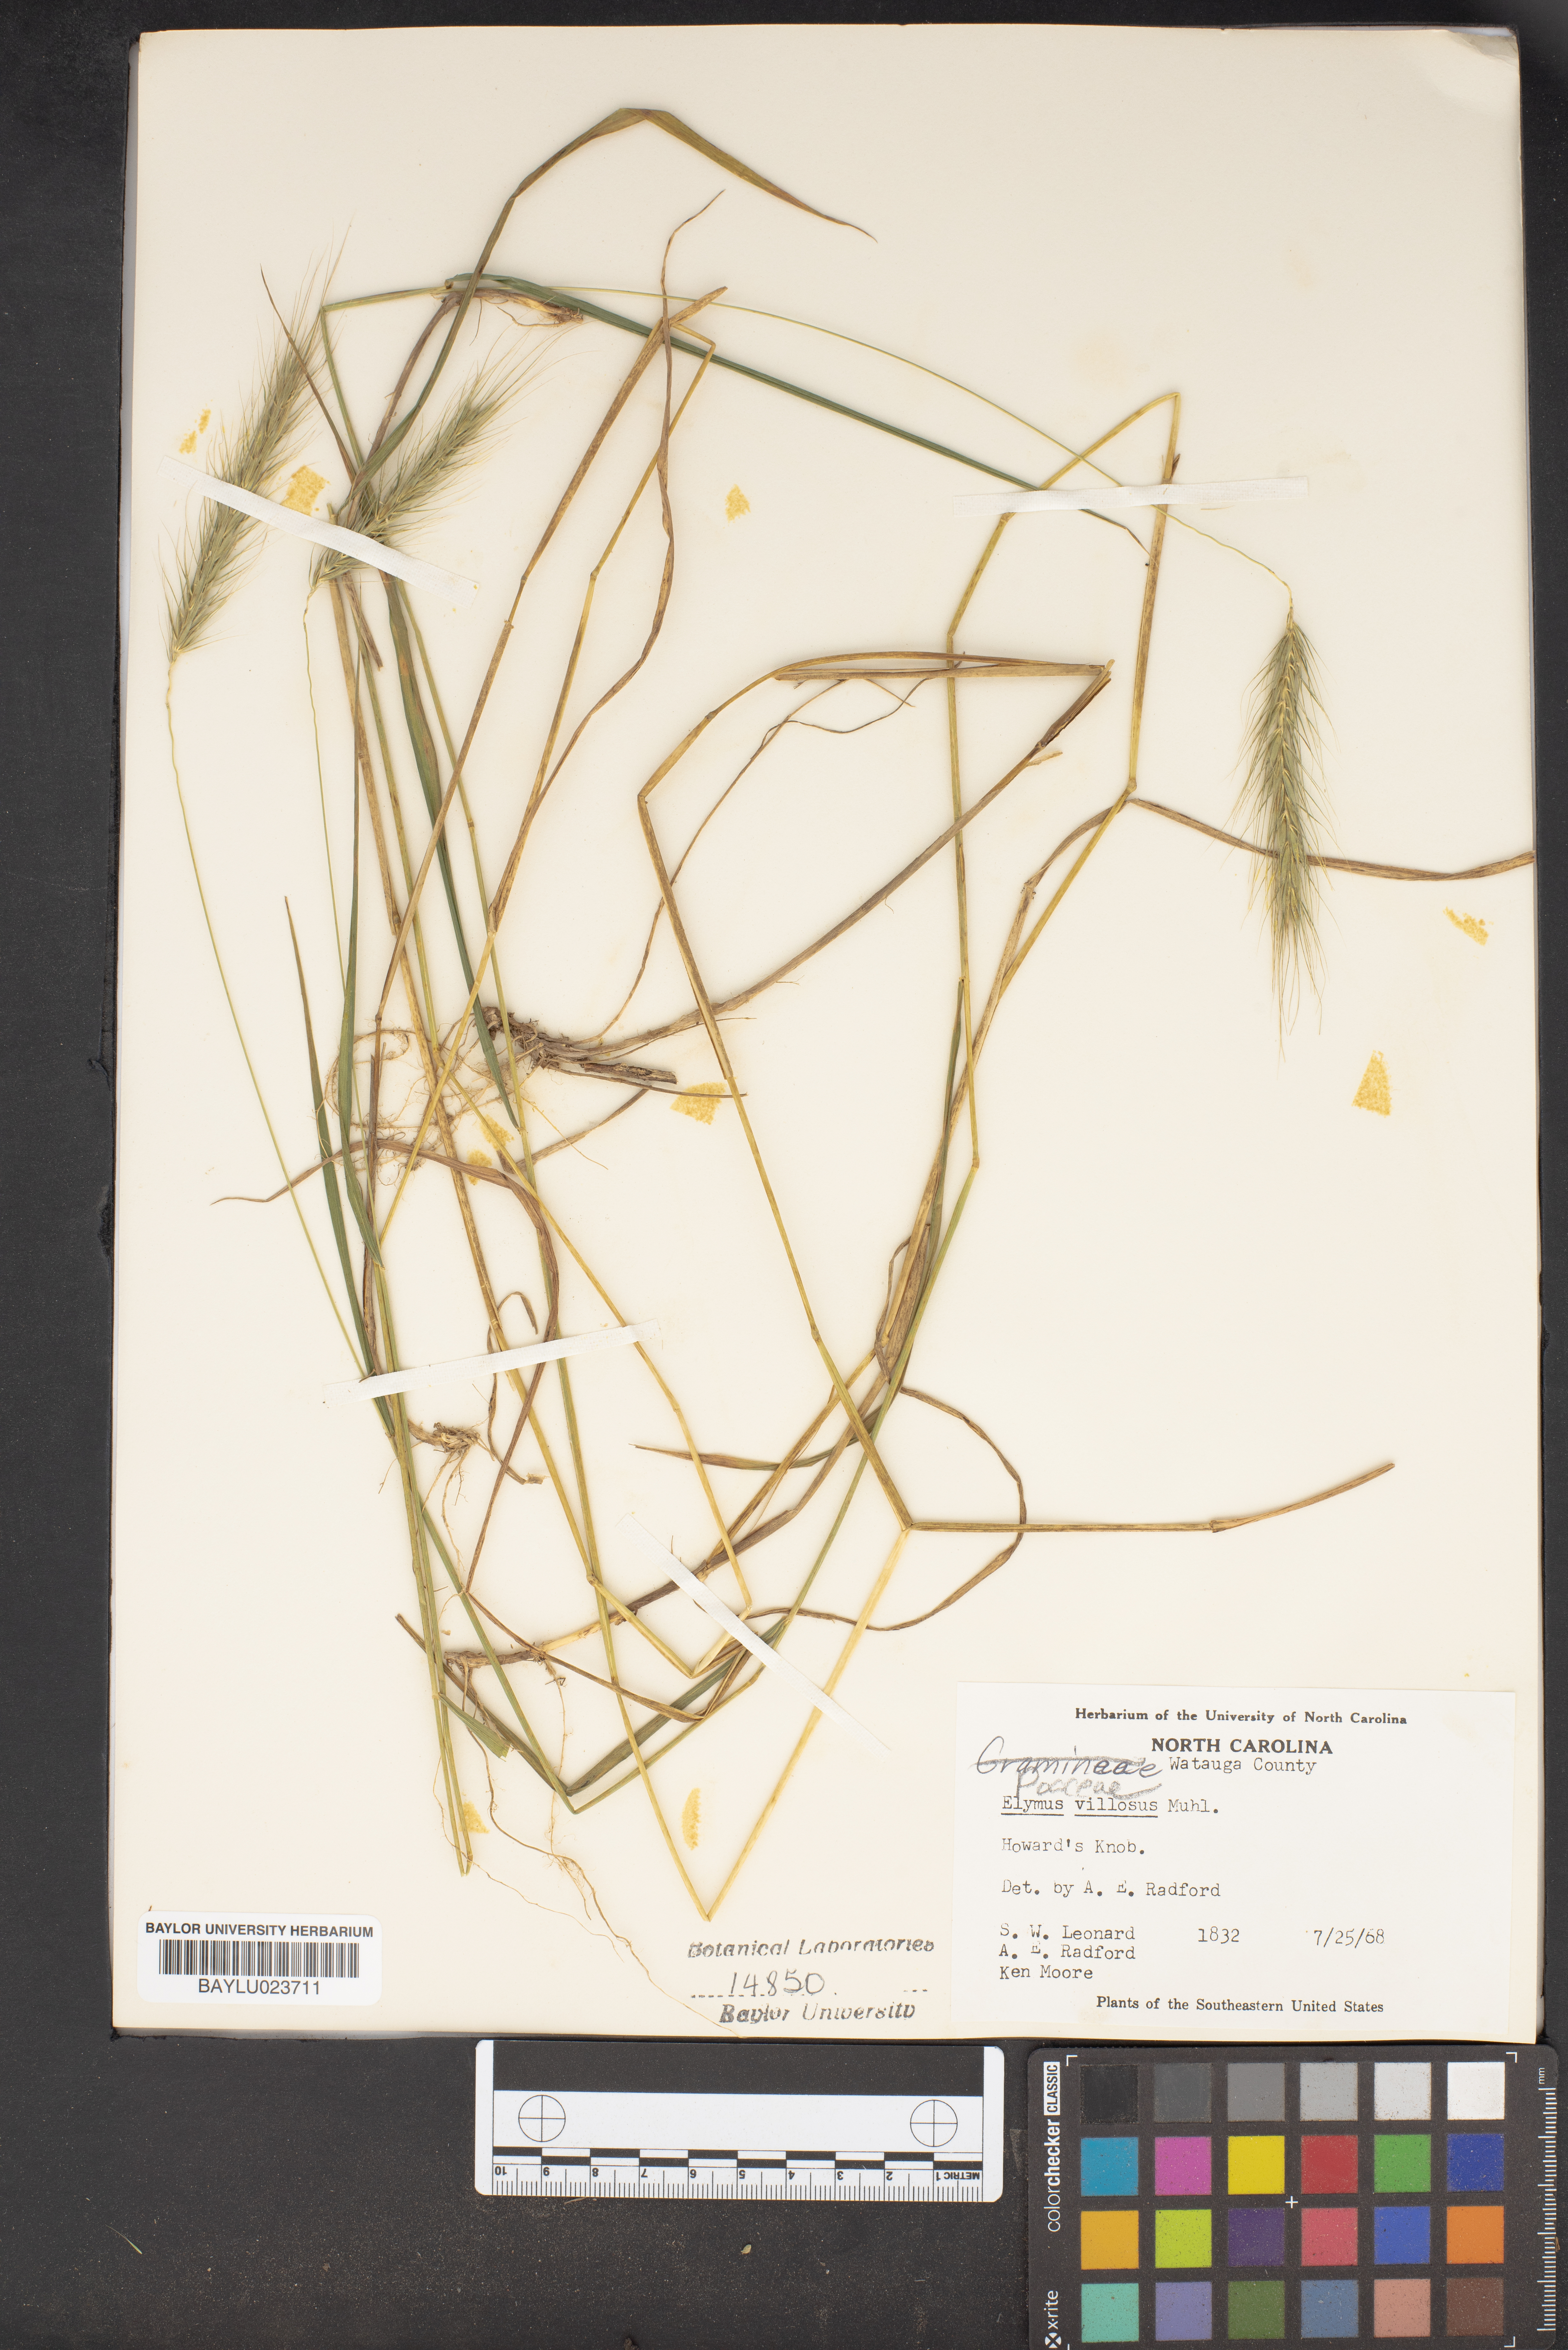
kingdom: Plantae
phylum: Tracheophyta
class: Liliopsida
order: Poales
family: Poaceae
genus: Elymus
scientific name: Elymus villosus
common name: Downy wild rye
